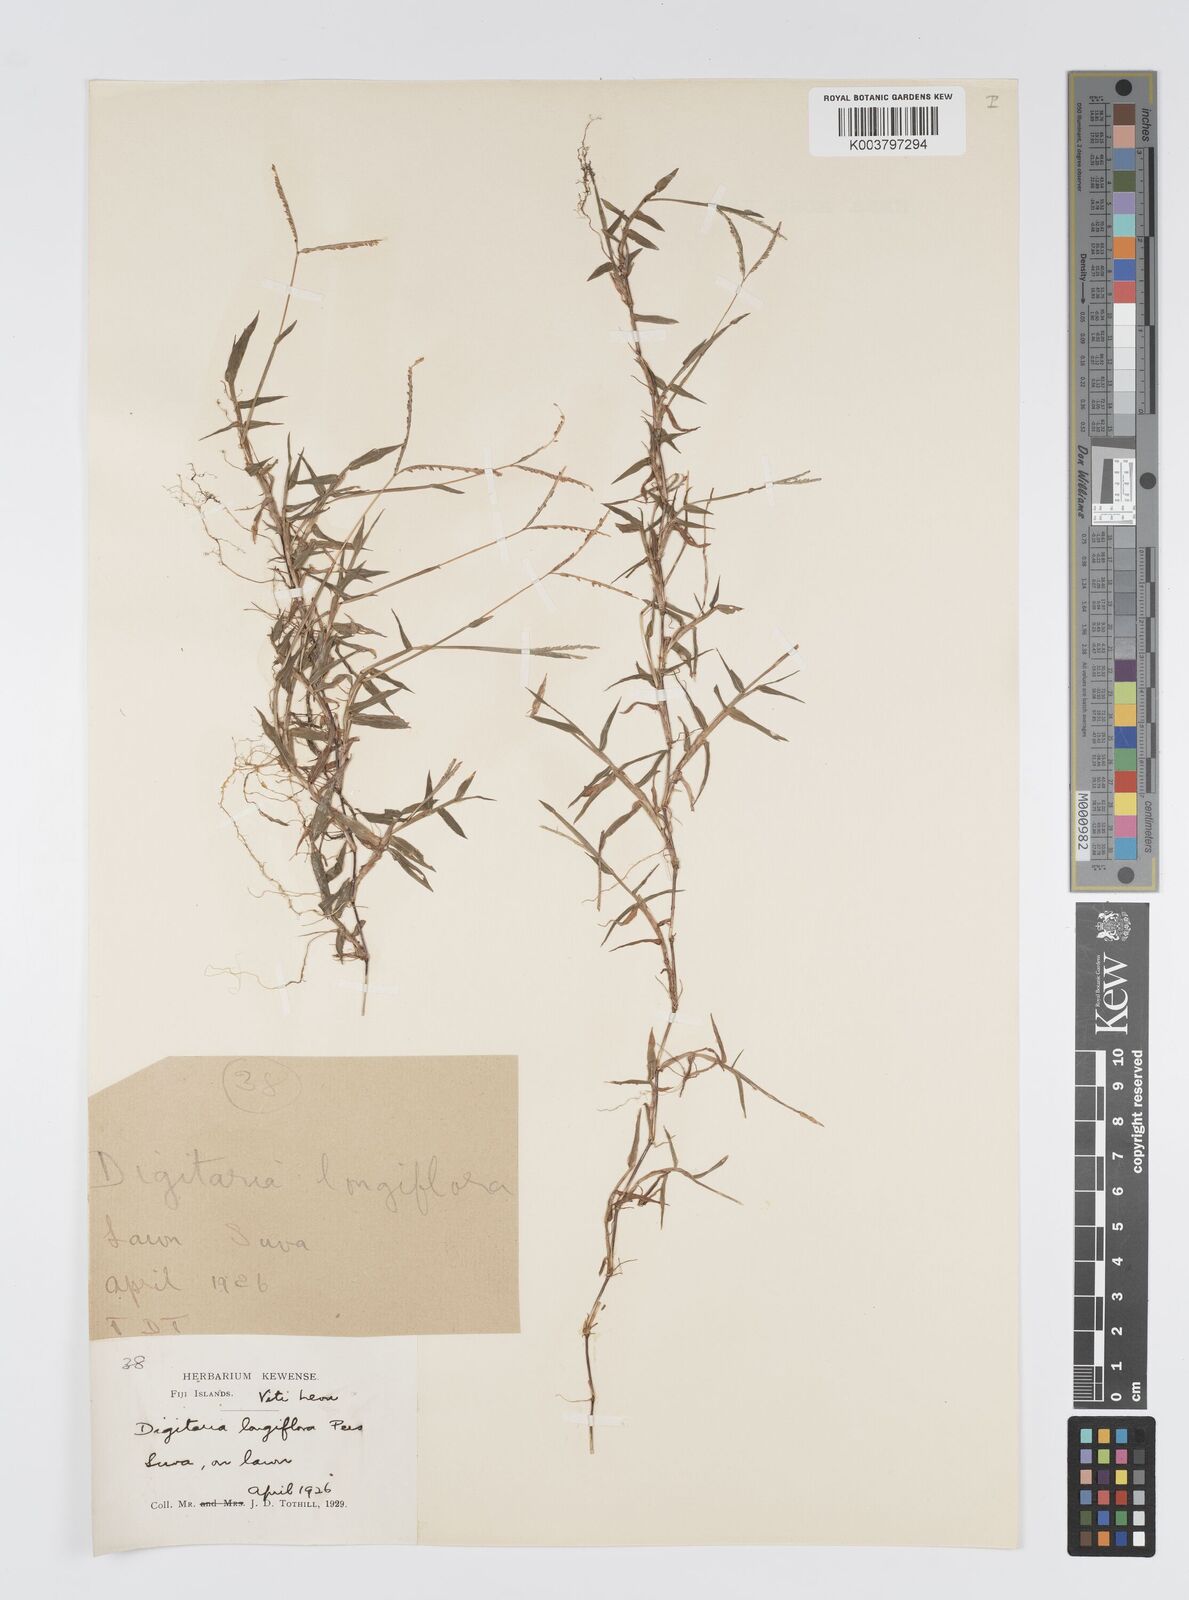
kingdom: Plantae
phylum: Tracheophyta
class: Liliopsida
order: Poales
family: Poaceae
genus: Digitaria
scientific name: Digitaria fuscescens
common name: Yellow crabgrass
